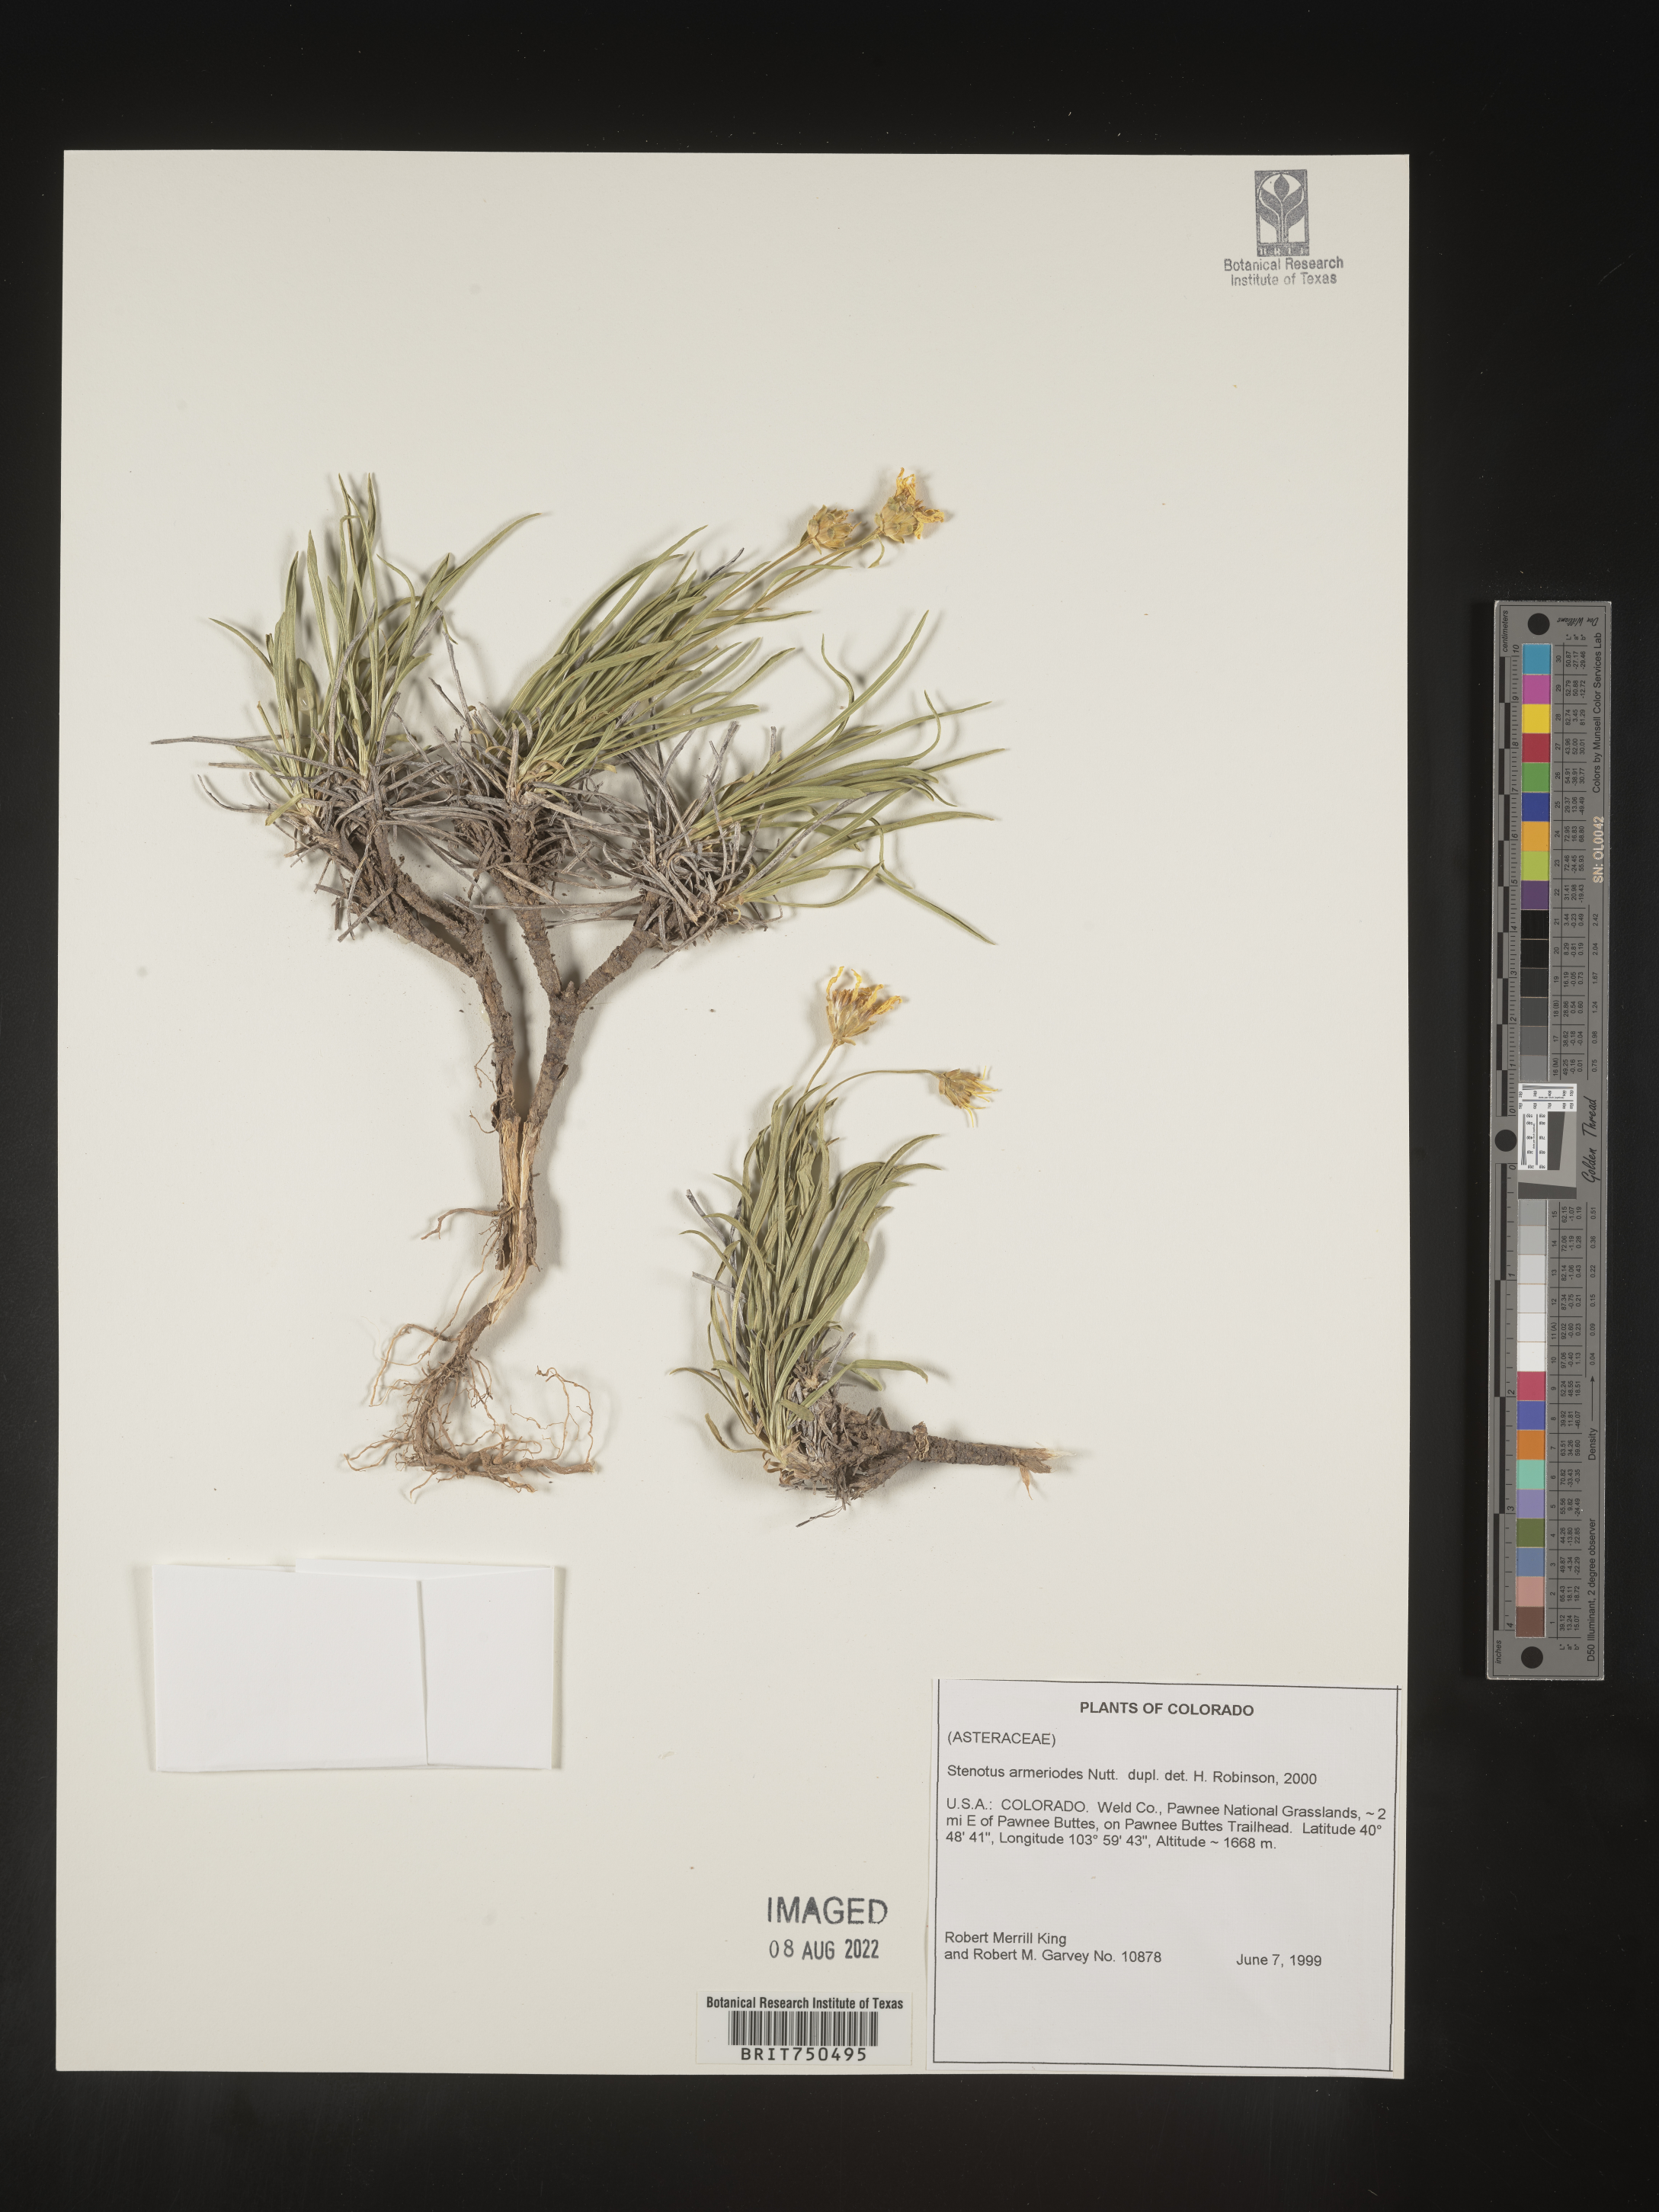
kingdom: Plantae
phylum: Tracheophyta
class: Magnoliopsida
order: Asterales
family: Asteraceae
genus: Stenotus
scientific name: Stenotus armerioides
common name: Thrifty goldenweed
